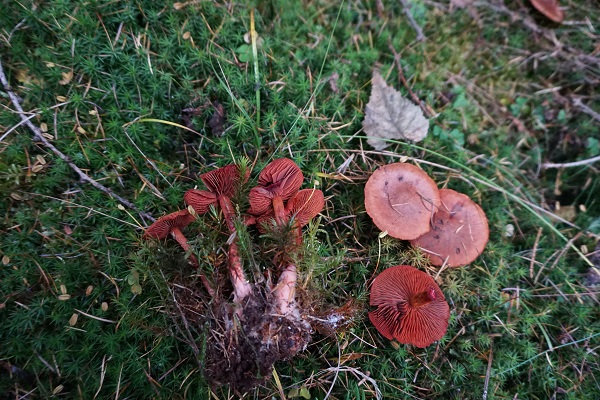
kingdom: Fungi
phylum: Basidiomycota
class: Agaricomycetes
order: Agaricales
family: Cortinariaceae
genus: Cortinarius
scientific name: Cortinarius sanguineus
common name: Bloodred webcap
